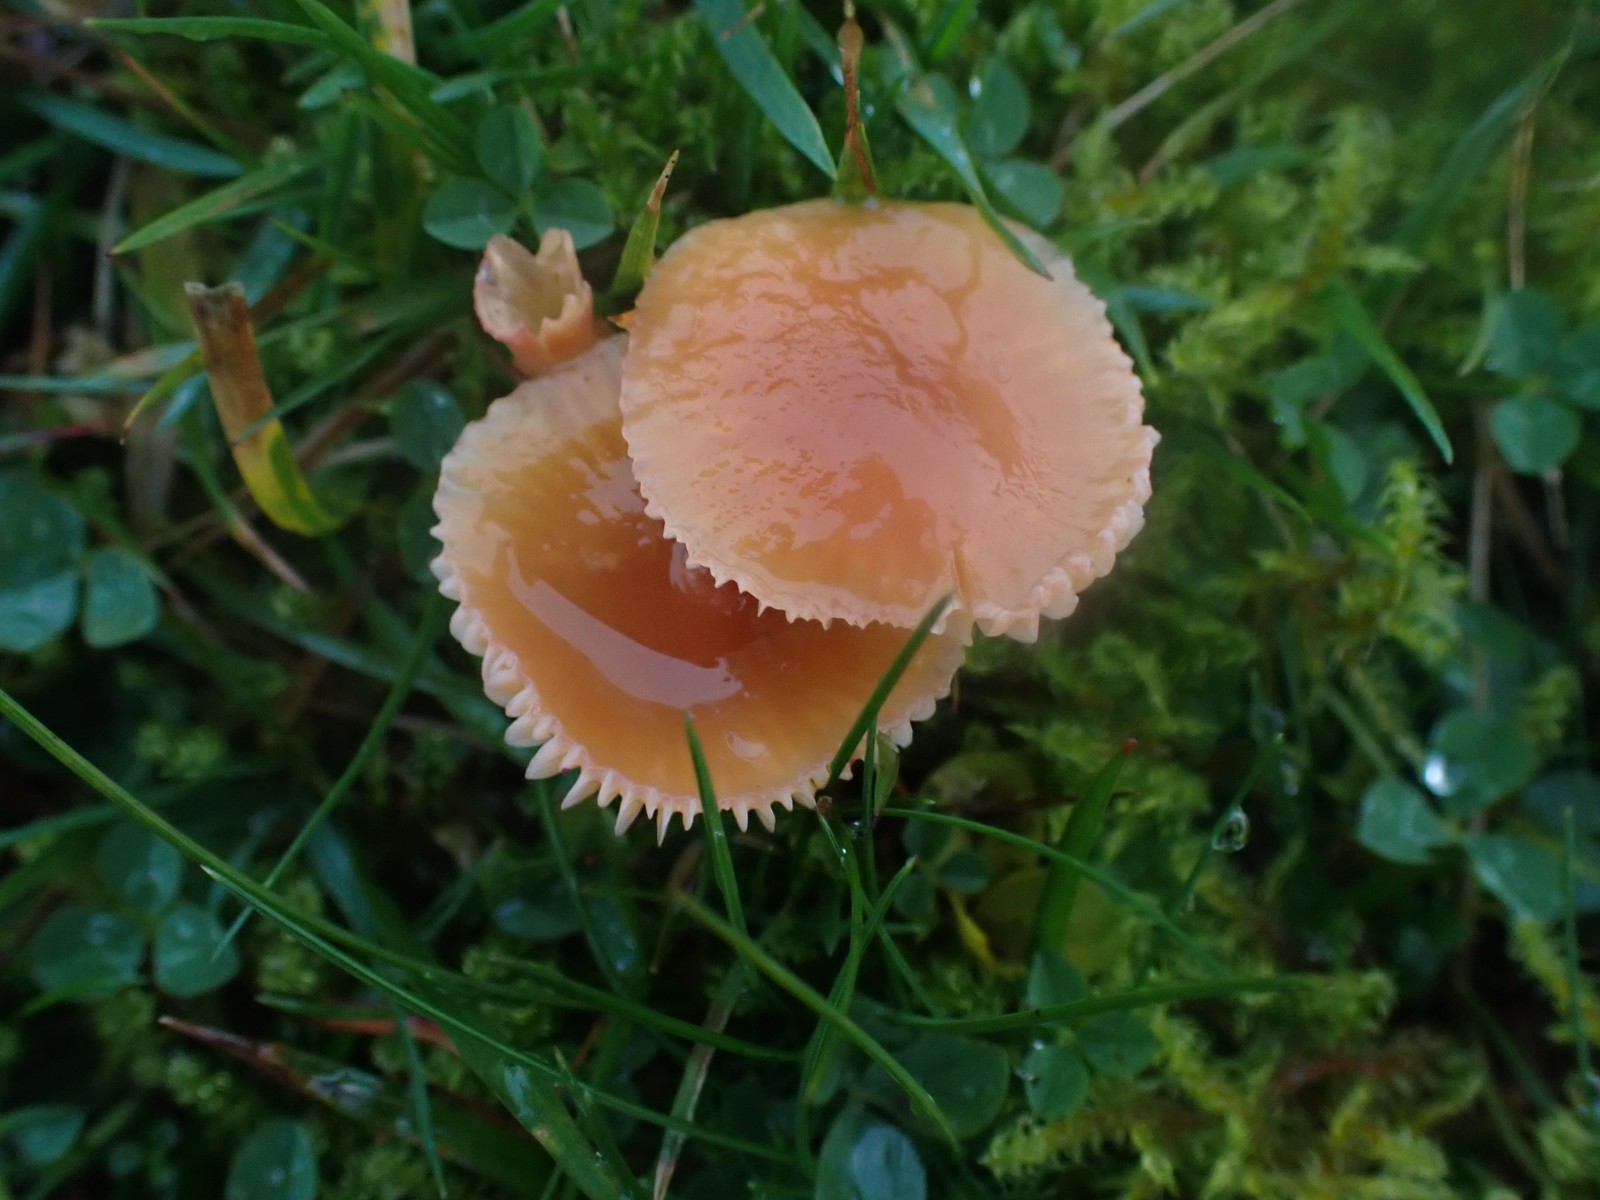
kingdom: Fungi
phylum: Basidiomycota
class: Agaricomycetes
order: Agaricales
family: Hygrophoraceae
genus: Gliophorus
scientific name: Gliophorus laetus
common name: brusk-vokshat
